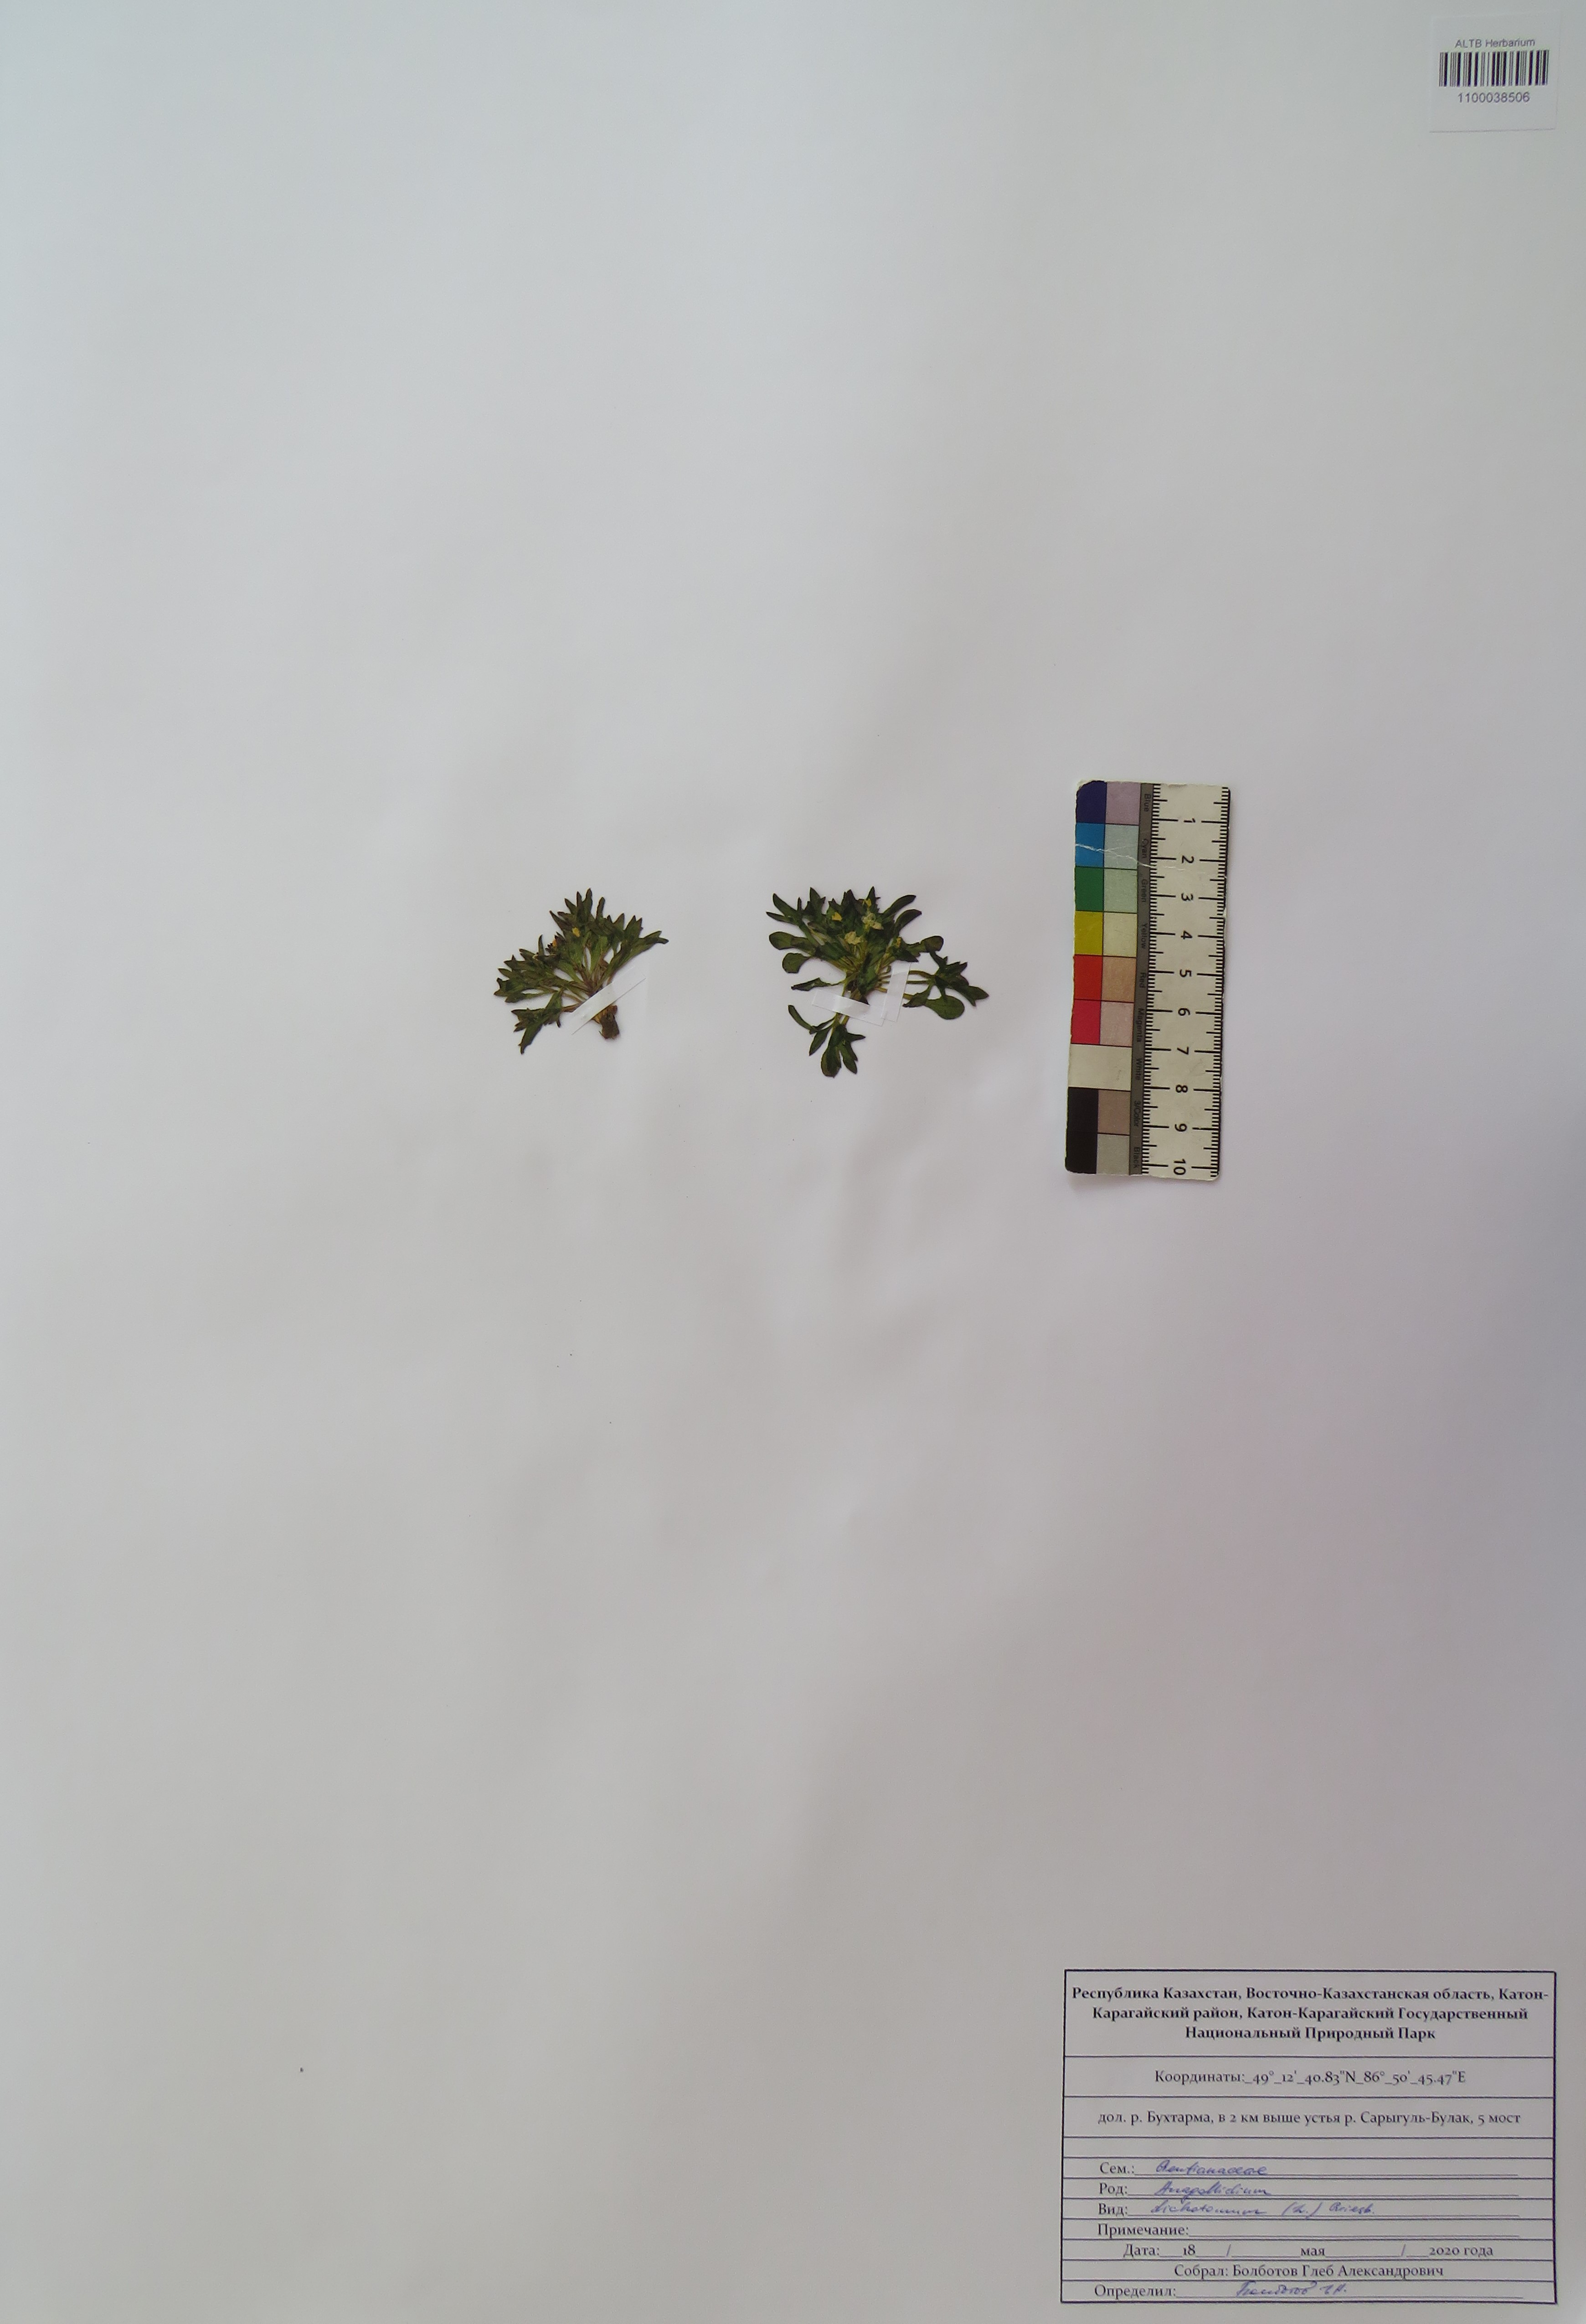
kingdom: Plantae
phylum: Tracheophyta
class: Magnoliopsida
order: Gentianales
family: Gentianaceae
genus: Swertia
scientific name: Swertia dichotoma
